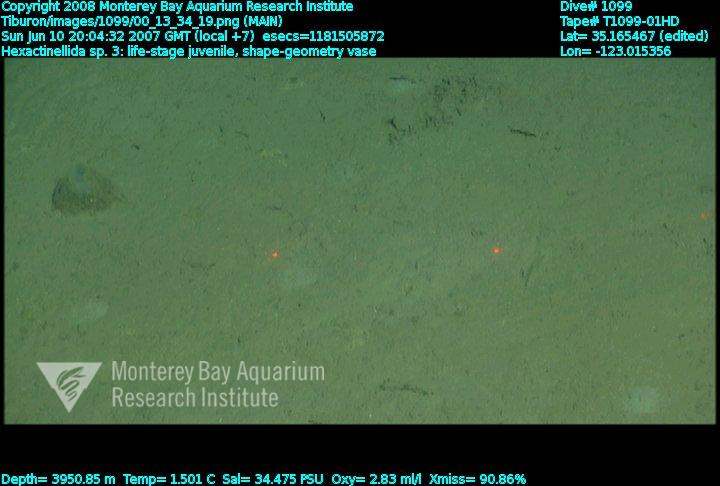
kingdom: Animalia
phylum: Porifera
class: Hexactinellida
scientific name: Hexactinellida
